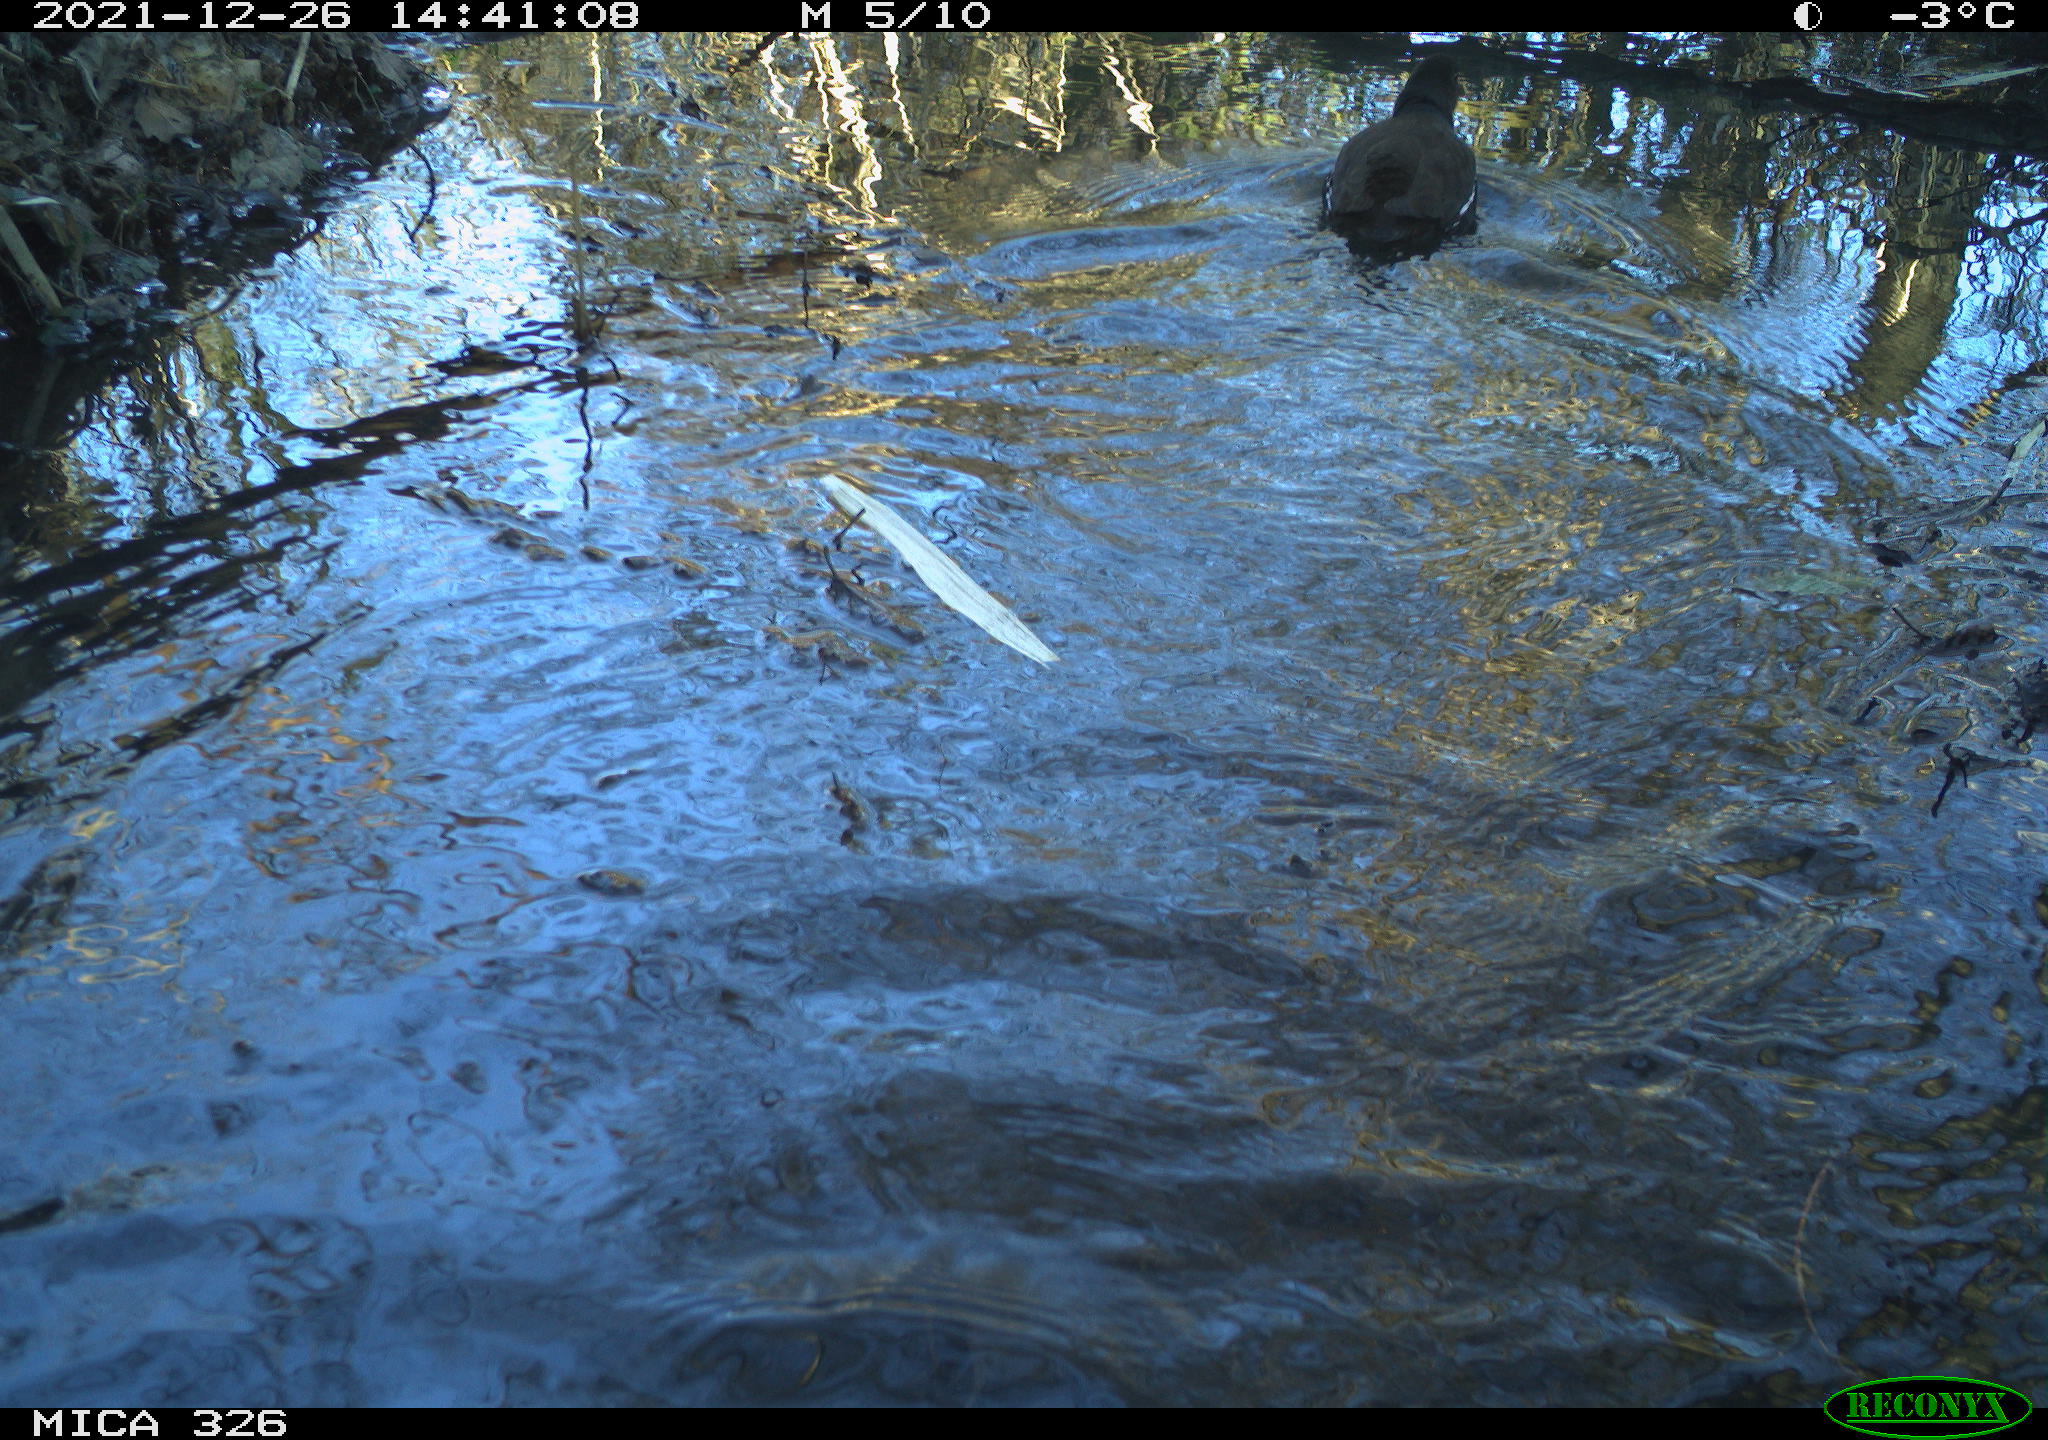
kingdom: Animalia
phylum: Chordata
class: Aves
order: Gruiformes
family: Rallidae
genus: Gallinula
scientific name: Gallinula chloropus
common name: Common moorhen
